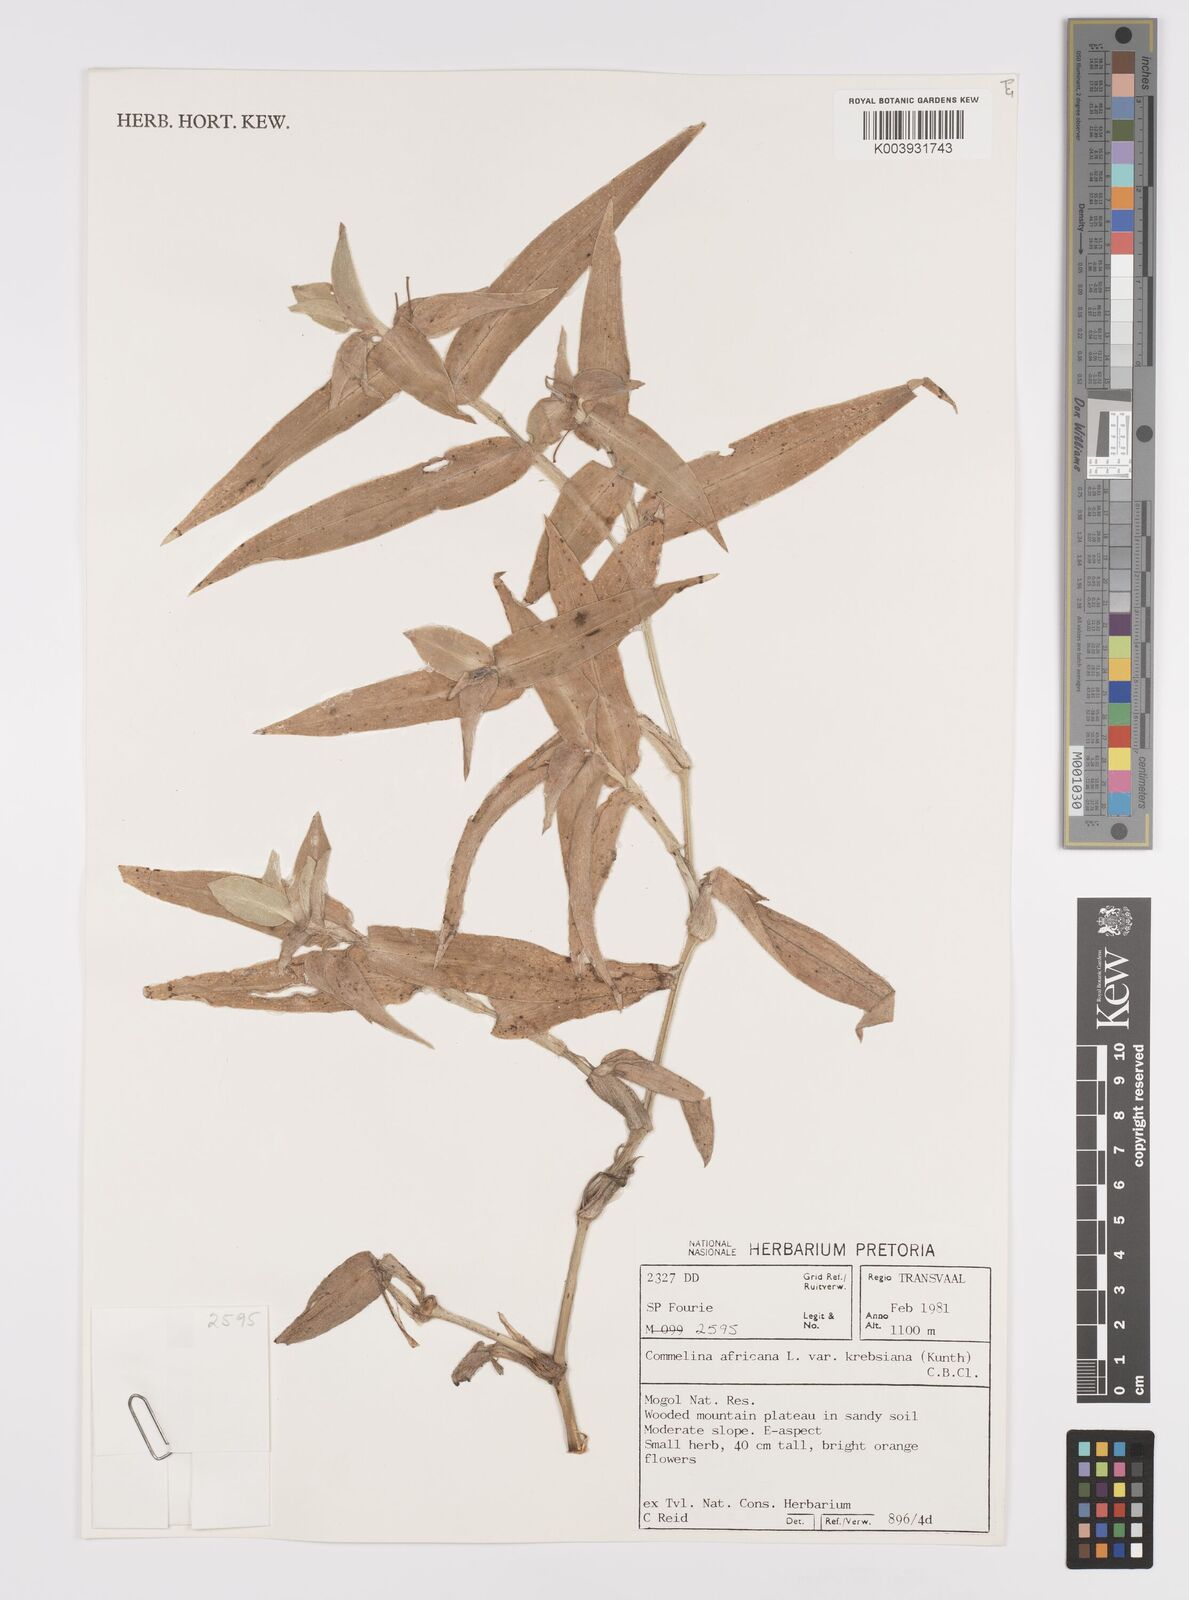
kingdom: Plantae
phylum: Tracheophyta
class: Liliopsida
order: Commelinales
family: Commelinaceae
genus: Commelina
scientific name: Commelina africana
